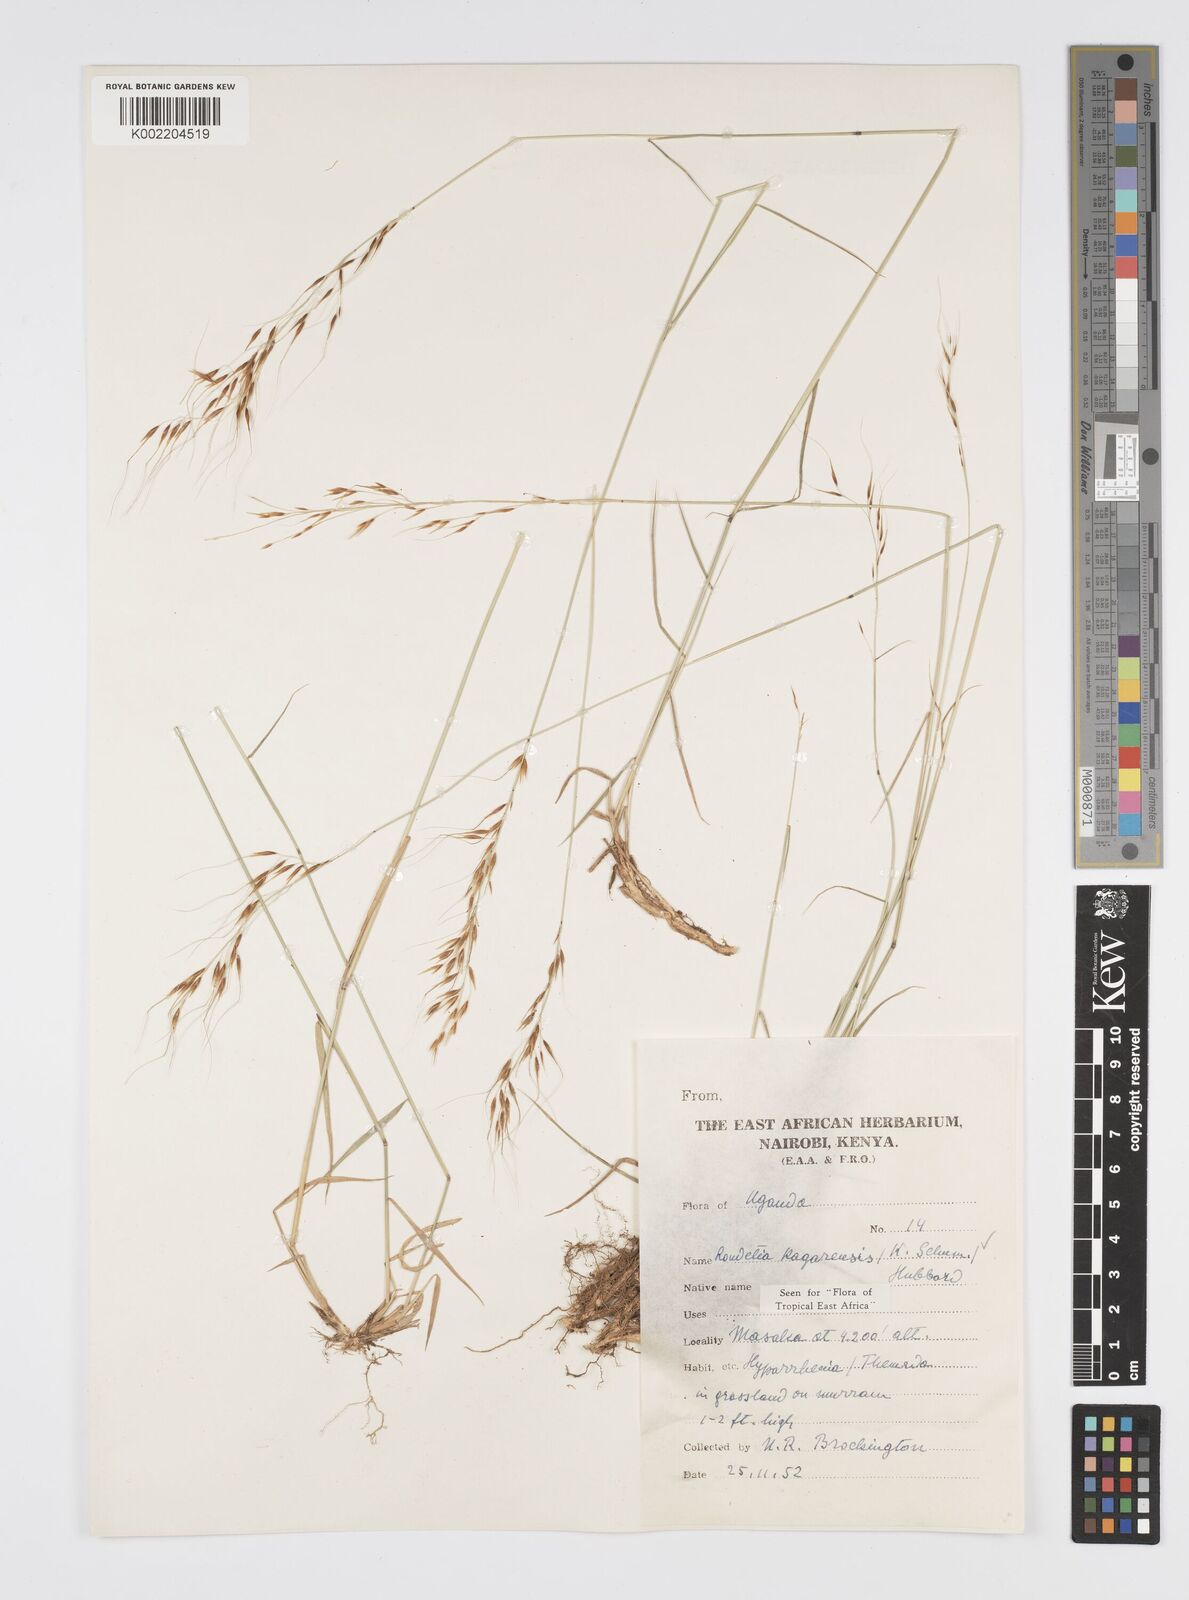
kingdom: Plantae
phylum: Tracheophyta
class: Liliopsida
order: Poales
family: Poaceae
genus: Loudetia
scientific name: Loudetia kagerensis
